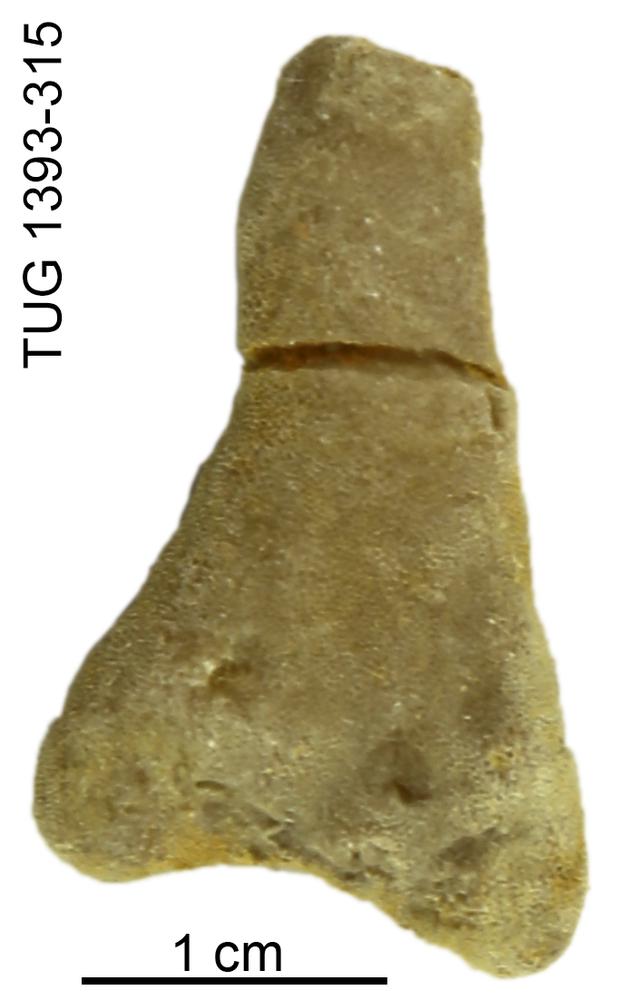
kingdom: Animalia
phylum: Bryozoa
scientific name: Bryozoa
